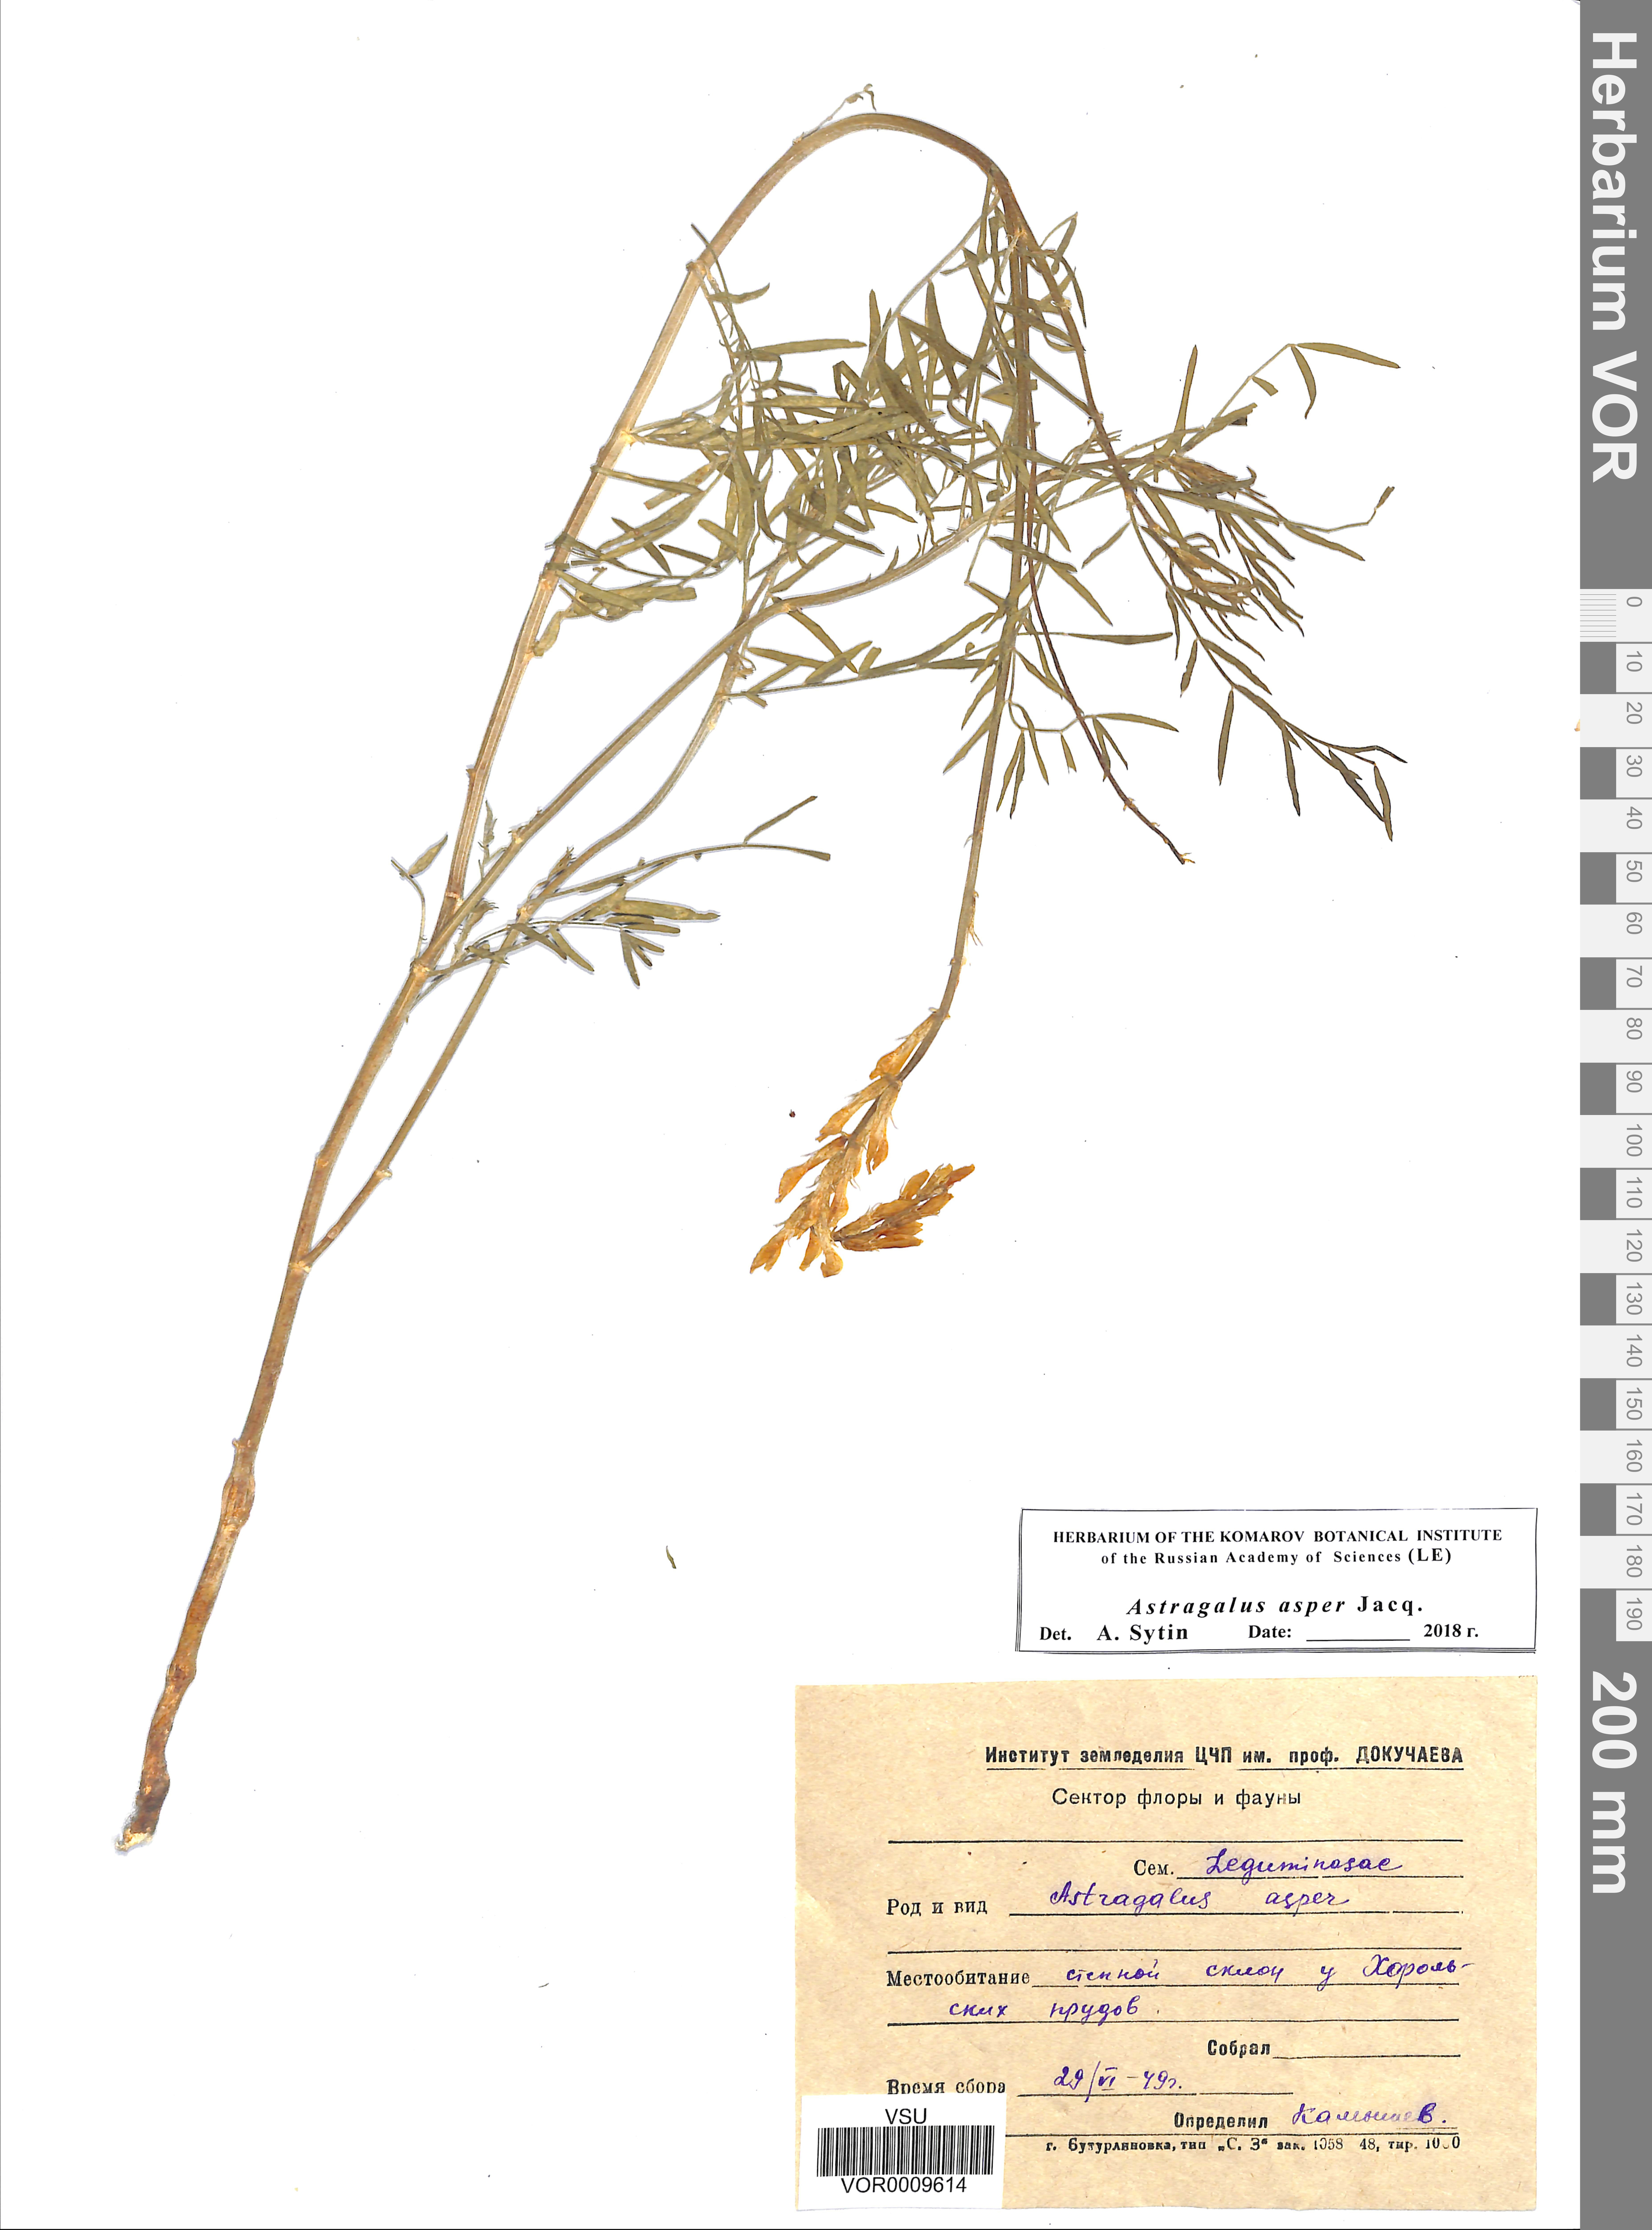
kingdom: Plantae
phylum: Tracheophyta
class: Magnoliopsida
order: Fabales
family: Fabaceae
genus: Astragalus
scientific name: Astragalus asper
